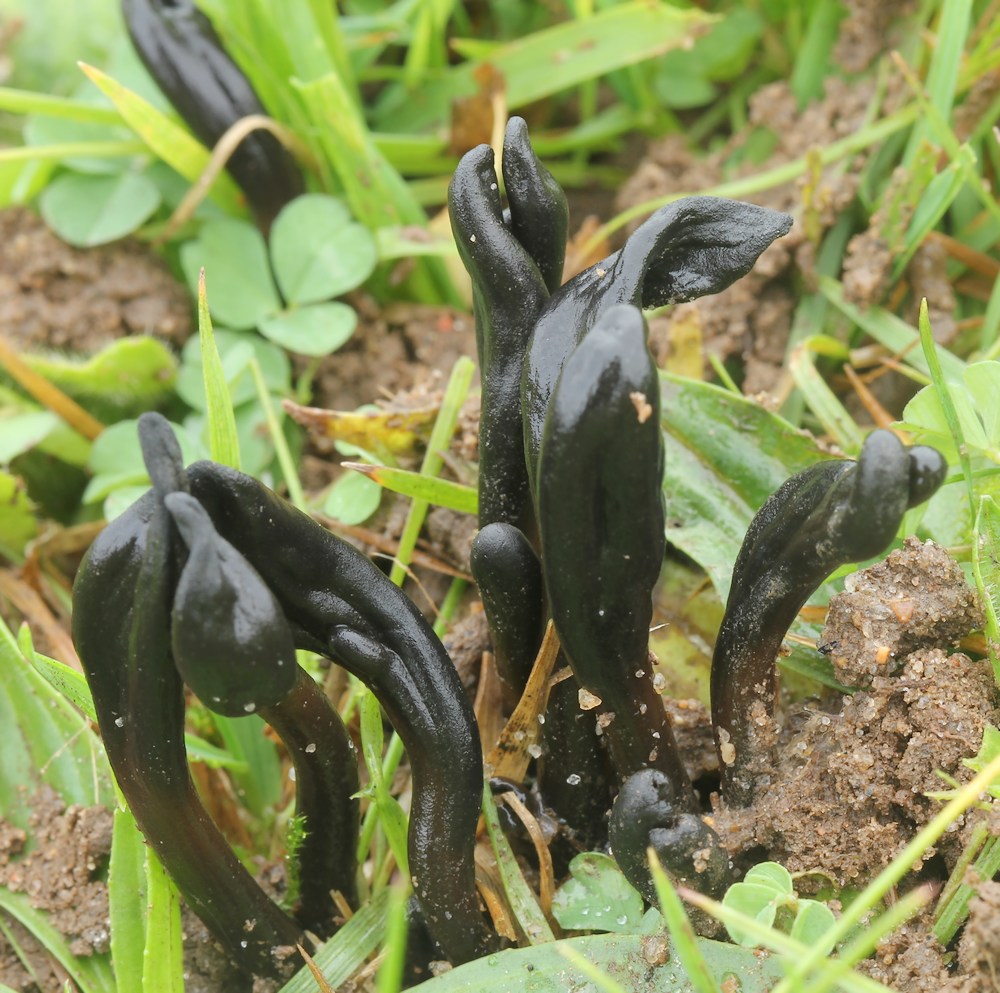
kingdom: Fungi
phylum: Ascomycota
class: Geoglossomycetes
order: Geoglossales
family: Geoglossaceae
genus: Glutinoglossum
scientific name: Glutinoglossum glutinosum
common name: slimet jordtunge
